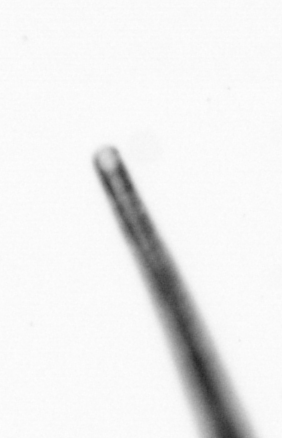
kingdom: Chromista
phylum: Ochrophyta
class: Bacillariophyceae
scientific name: Bacillariophyceae
